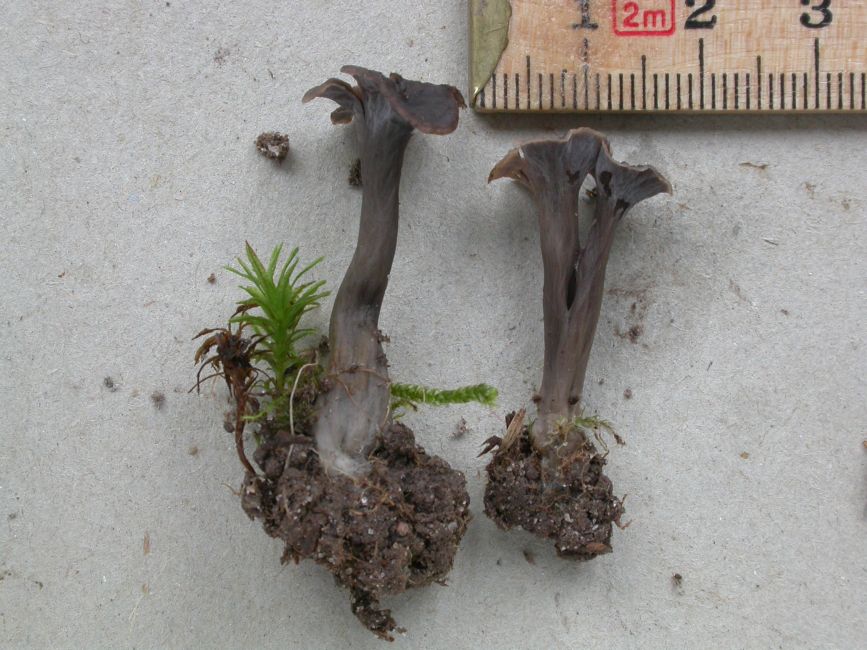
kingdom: Fungi
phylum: Basidiomycota
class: Agaricomycetes
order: Cantharellales
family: Hydnaceae
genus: Craterellus
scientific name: Craterellus cornucopioides
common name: trompetsvamp
